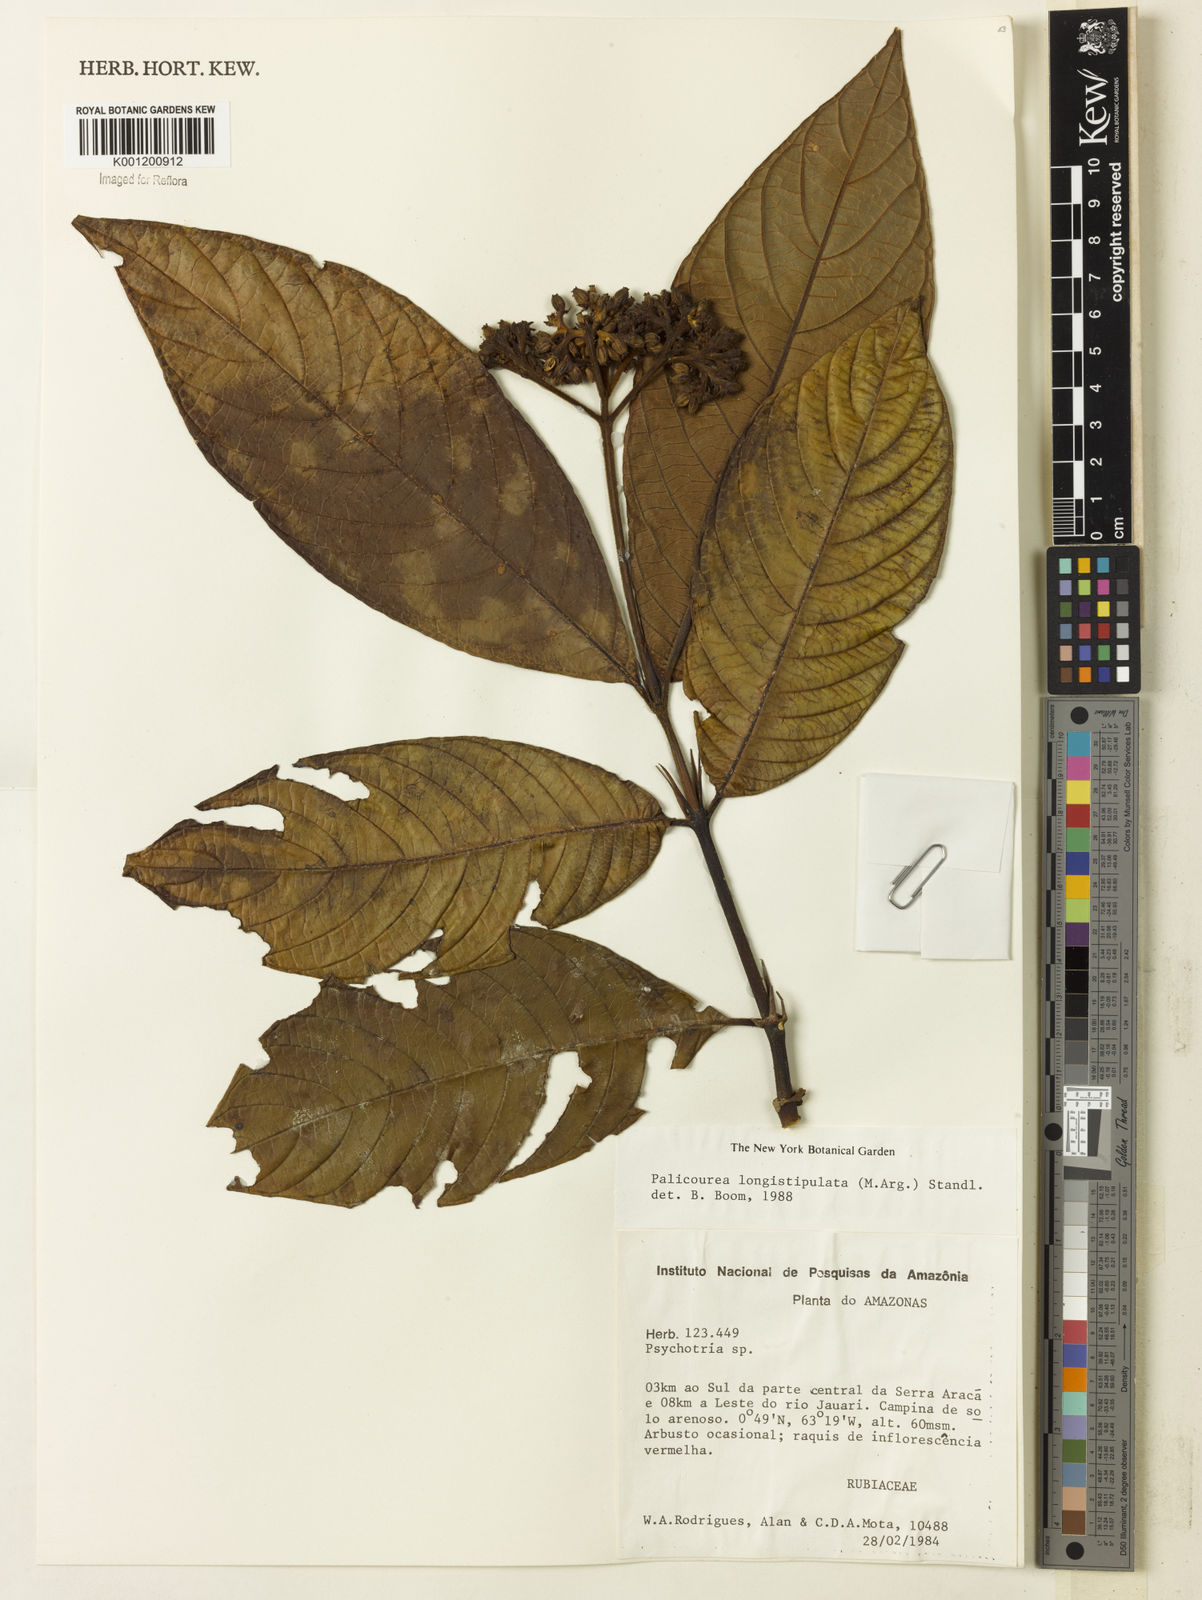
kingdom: Plantae
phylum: Tracheophyta
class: Magnoliopsida
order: Gentianales
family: Rubiaceae
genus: Palicourea
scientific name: Palicourea longistipulata
